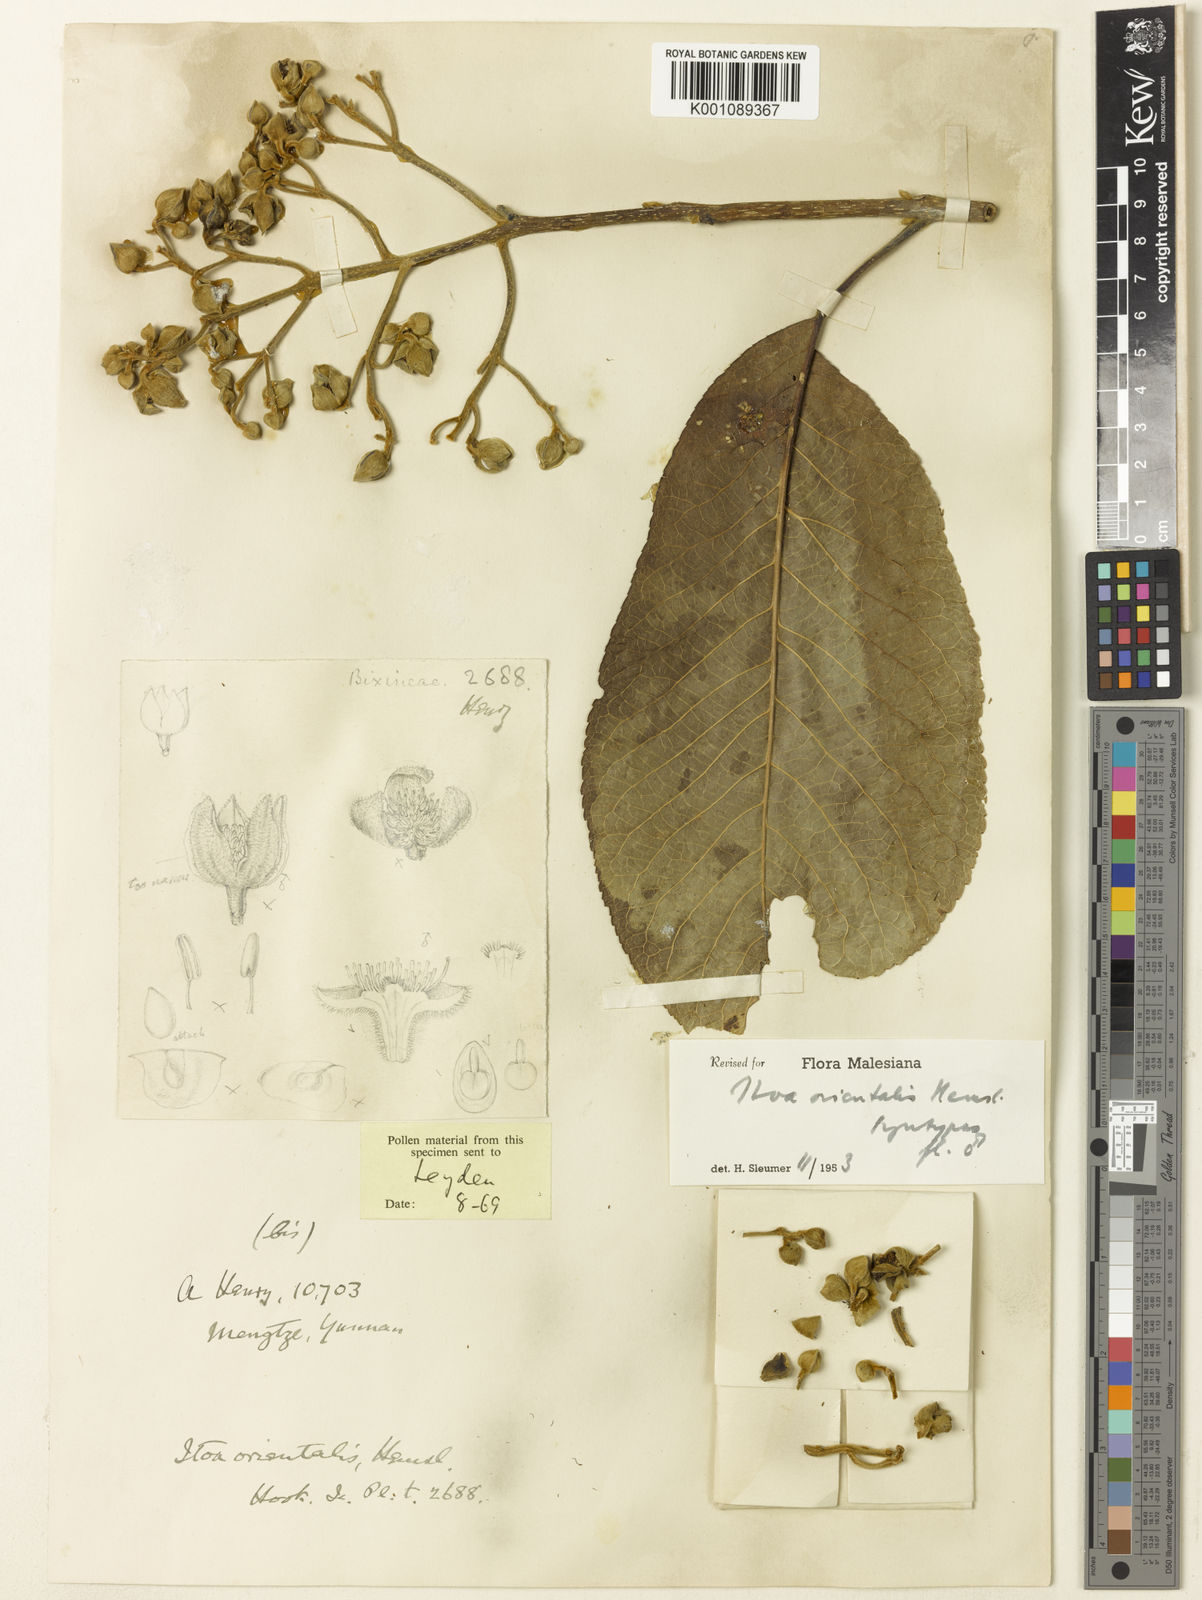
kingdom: Plantae
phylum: Tracheophyta
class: Magnoliopsida
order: Malpighiales
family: Salicaceae
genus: Itoa
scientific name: Itoa orientalis
